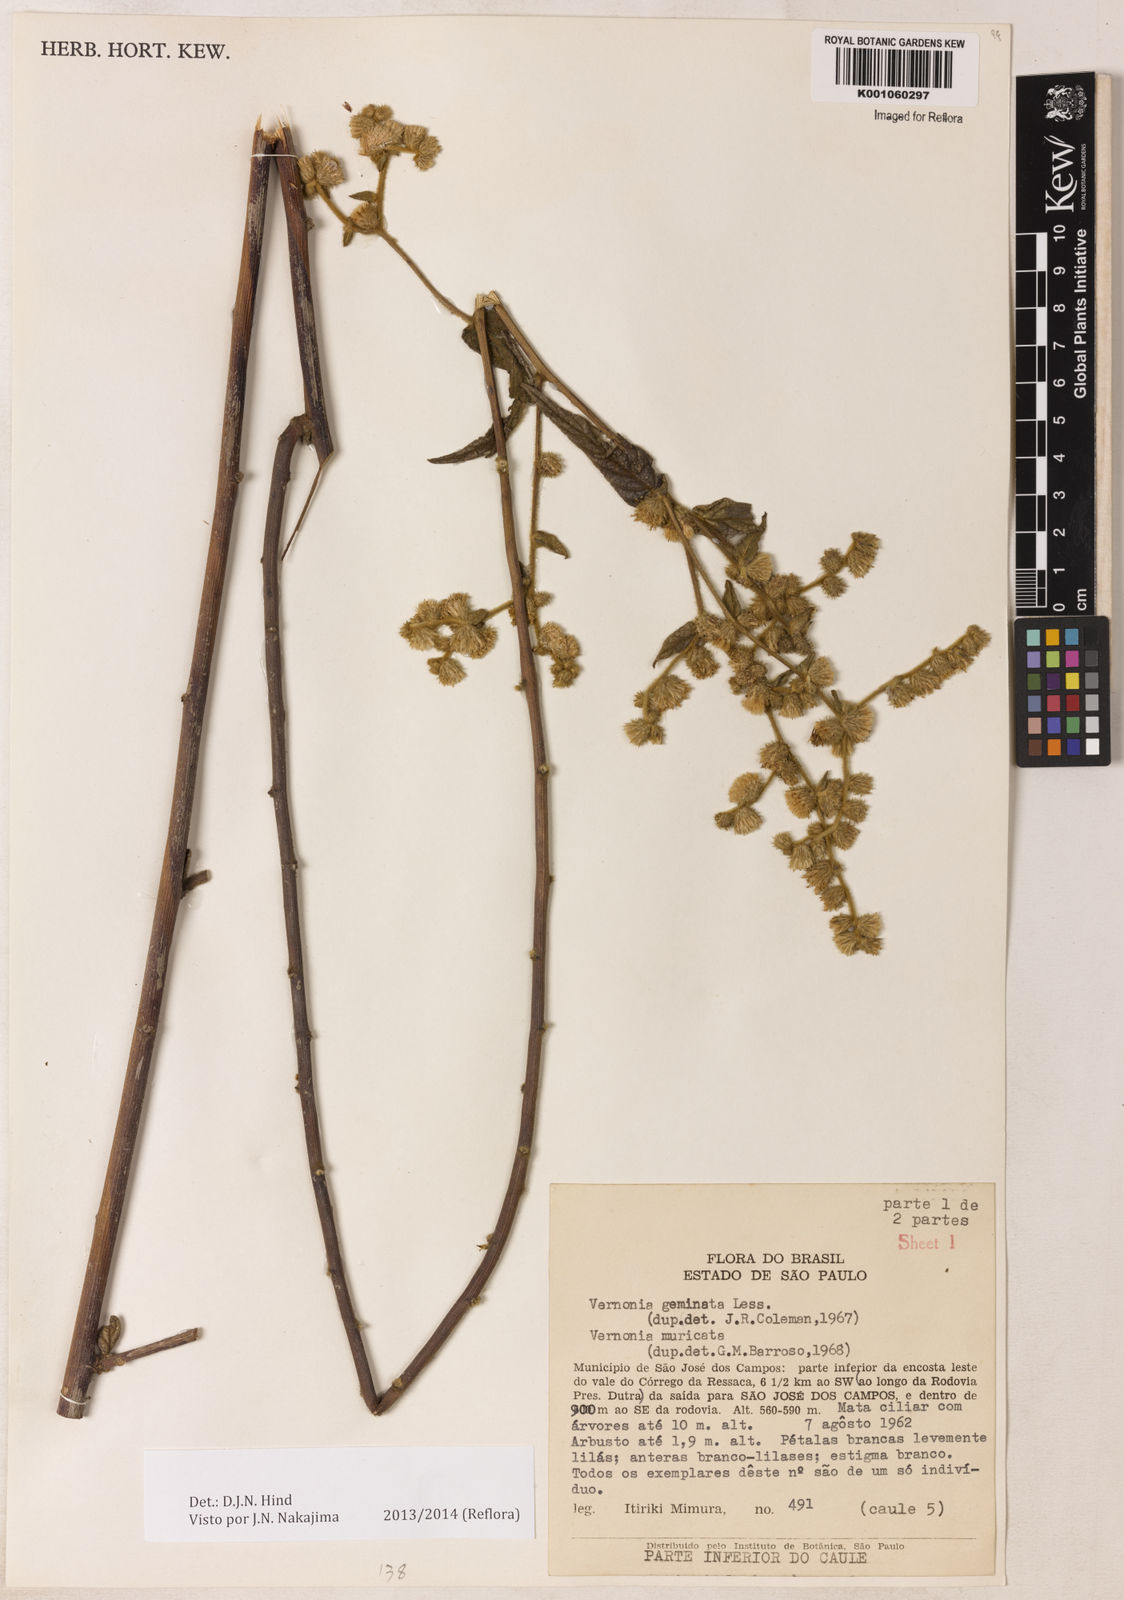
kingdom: Plantae
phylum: Tracheophyta
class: Magnoliopsida
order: Asterales
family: Asteraceae
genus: Lepidaploa
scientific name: Lepidaploa canescens
